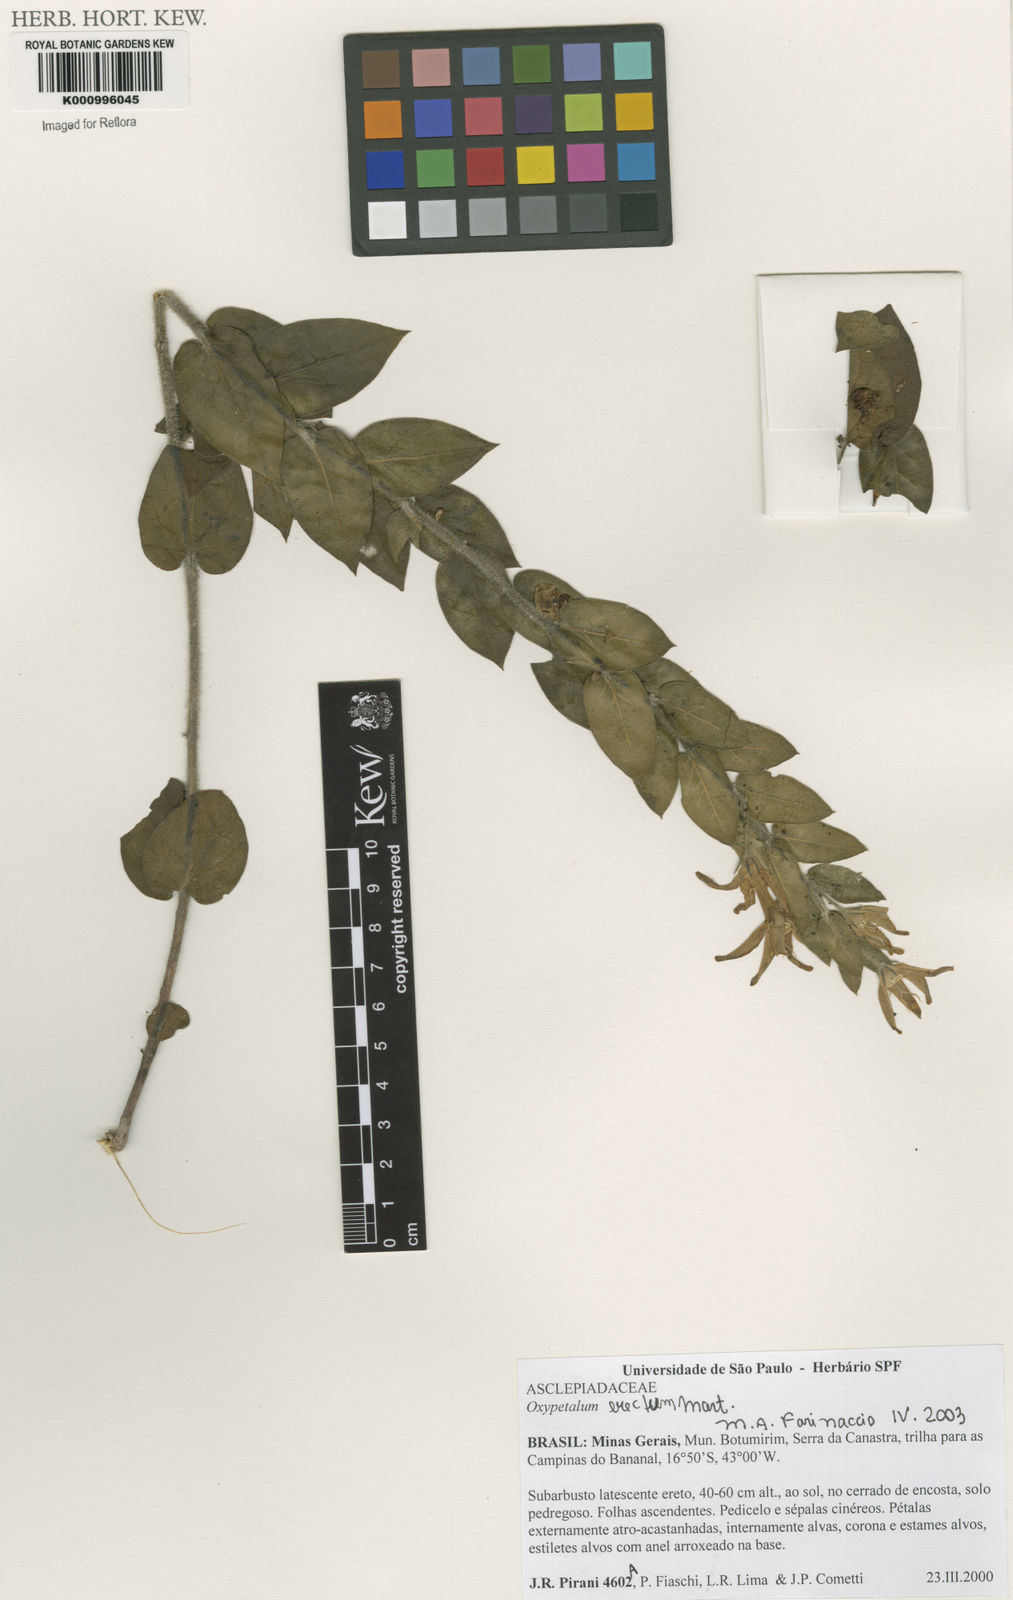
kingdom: Plantae
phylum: Tracheophyta
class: Magnoliopsida
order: Gentianales
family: Apocynaceae
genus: Oxypetalum
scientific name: Oxypetalum erectum
